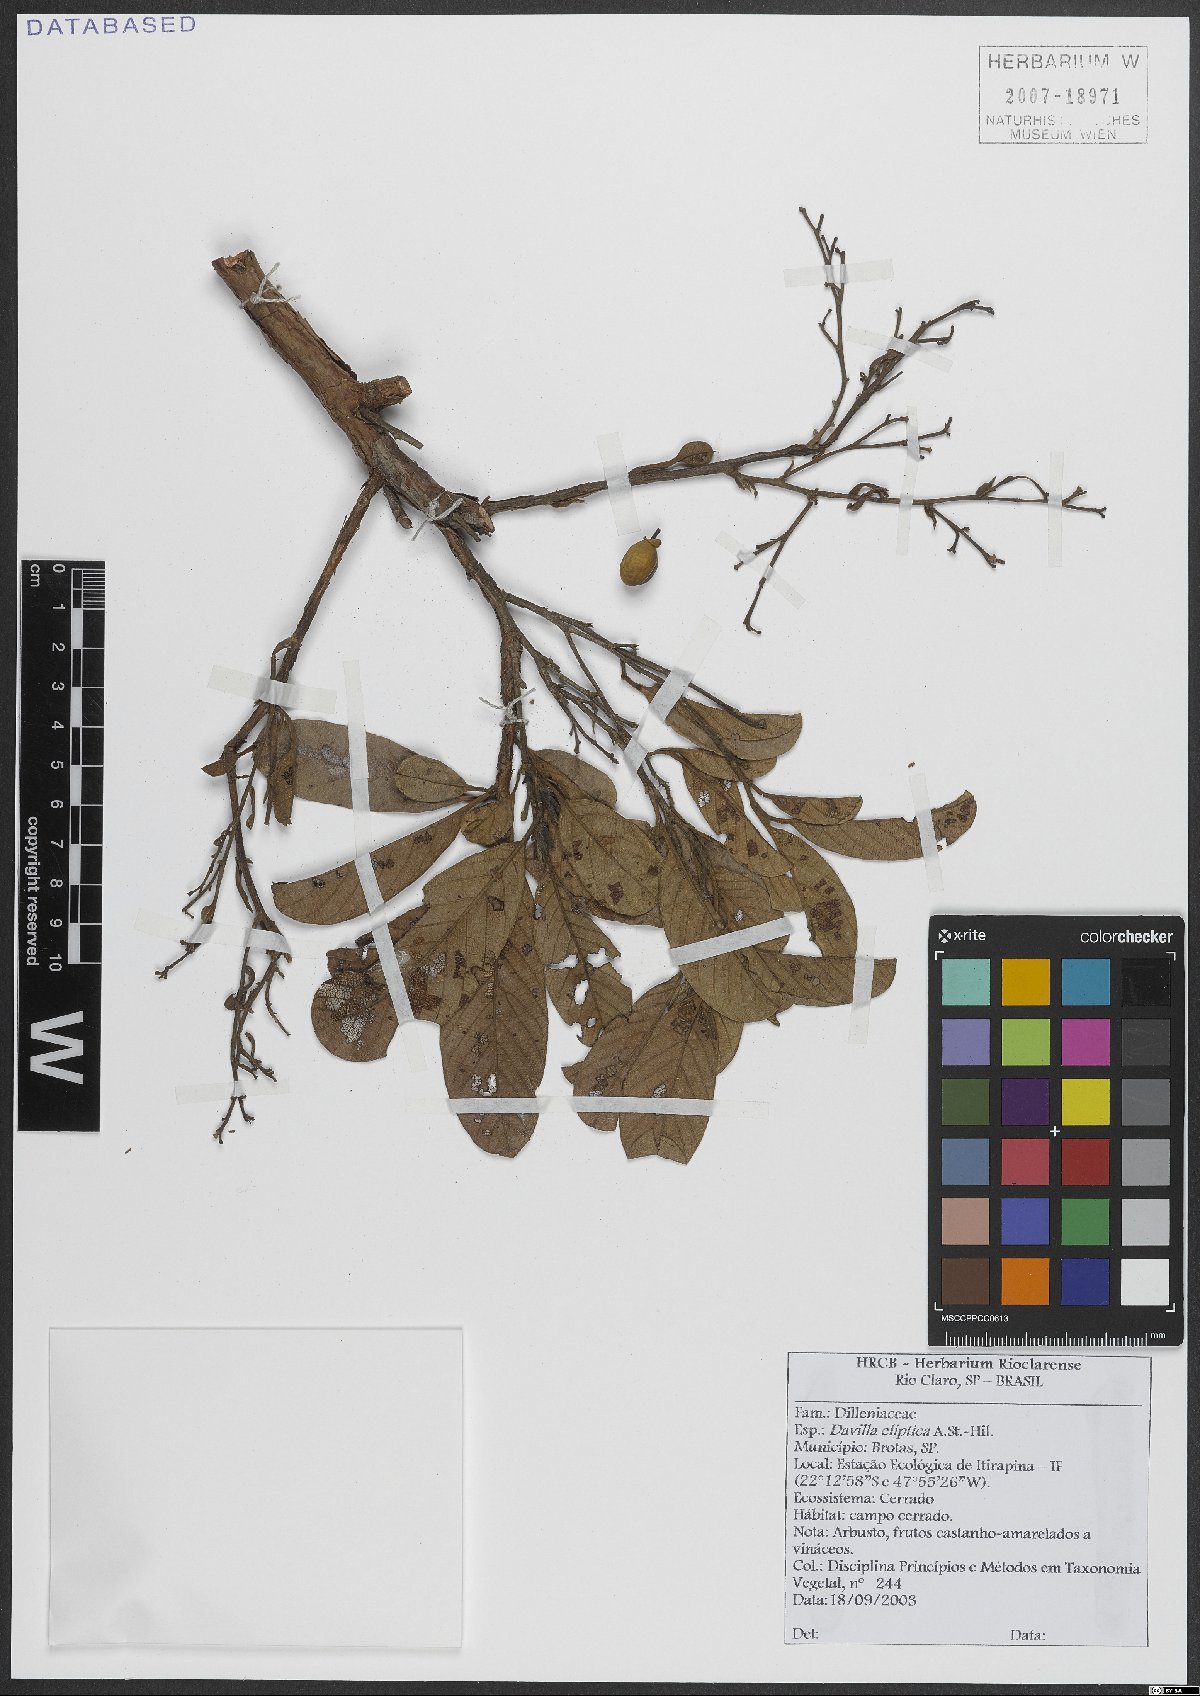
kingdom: Plantae
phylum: Tracheophyta
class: Magnoliopsida
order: Dilleniales
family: Dilleniaceae
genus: Davilla
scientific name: Davilla elliptica
